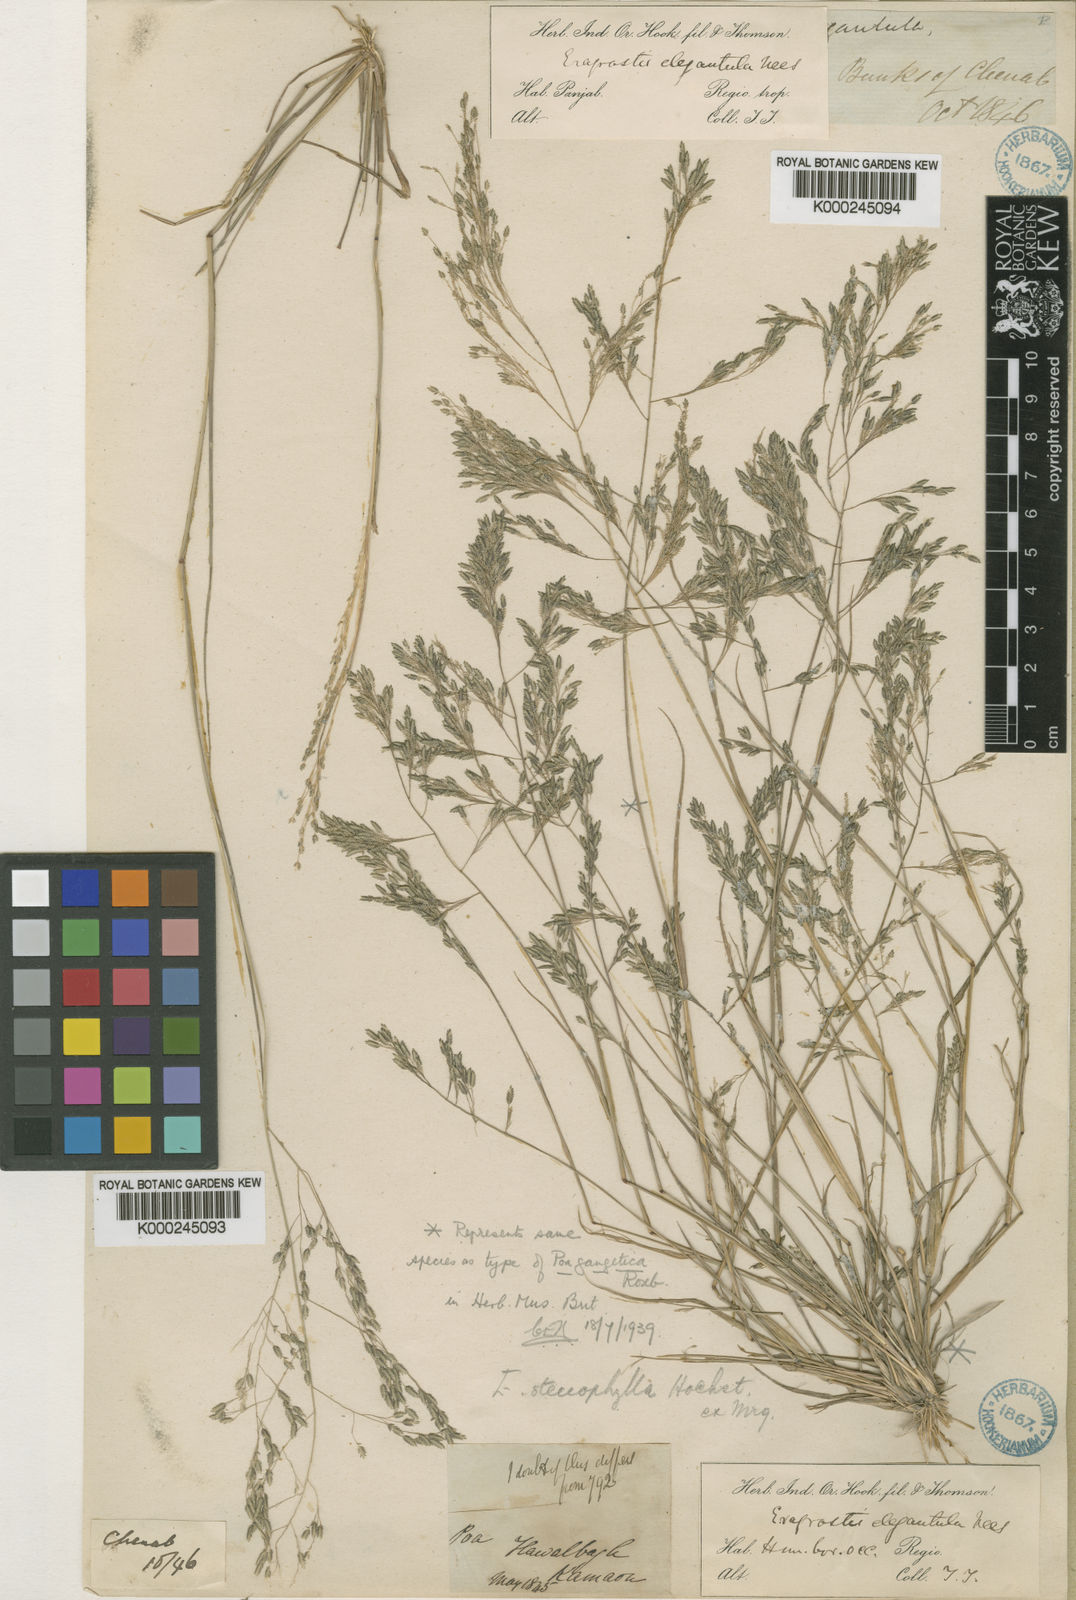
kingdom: Plantae
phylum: Tracheophyta
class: Liliopsida
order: Poales
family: Poaceae
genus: Eragrostis
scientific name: Eragrostis gangetica
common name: Slimflower lovegrass
